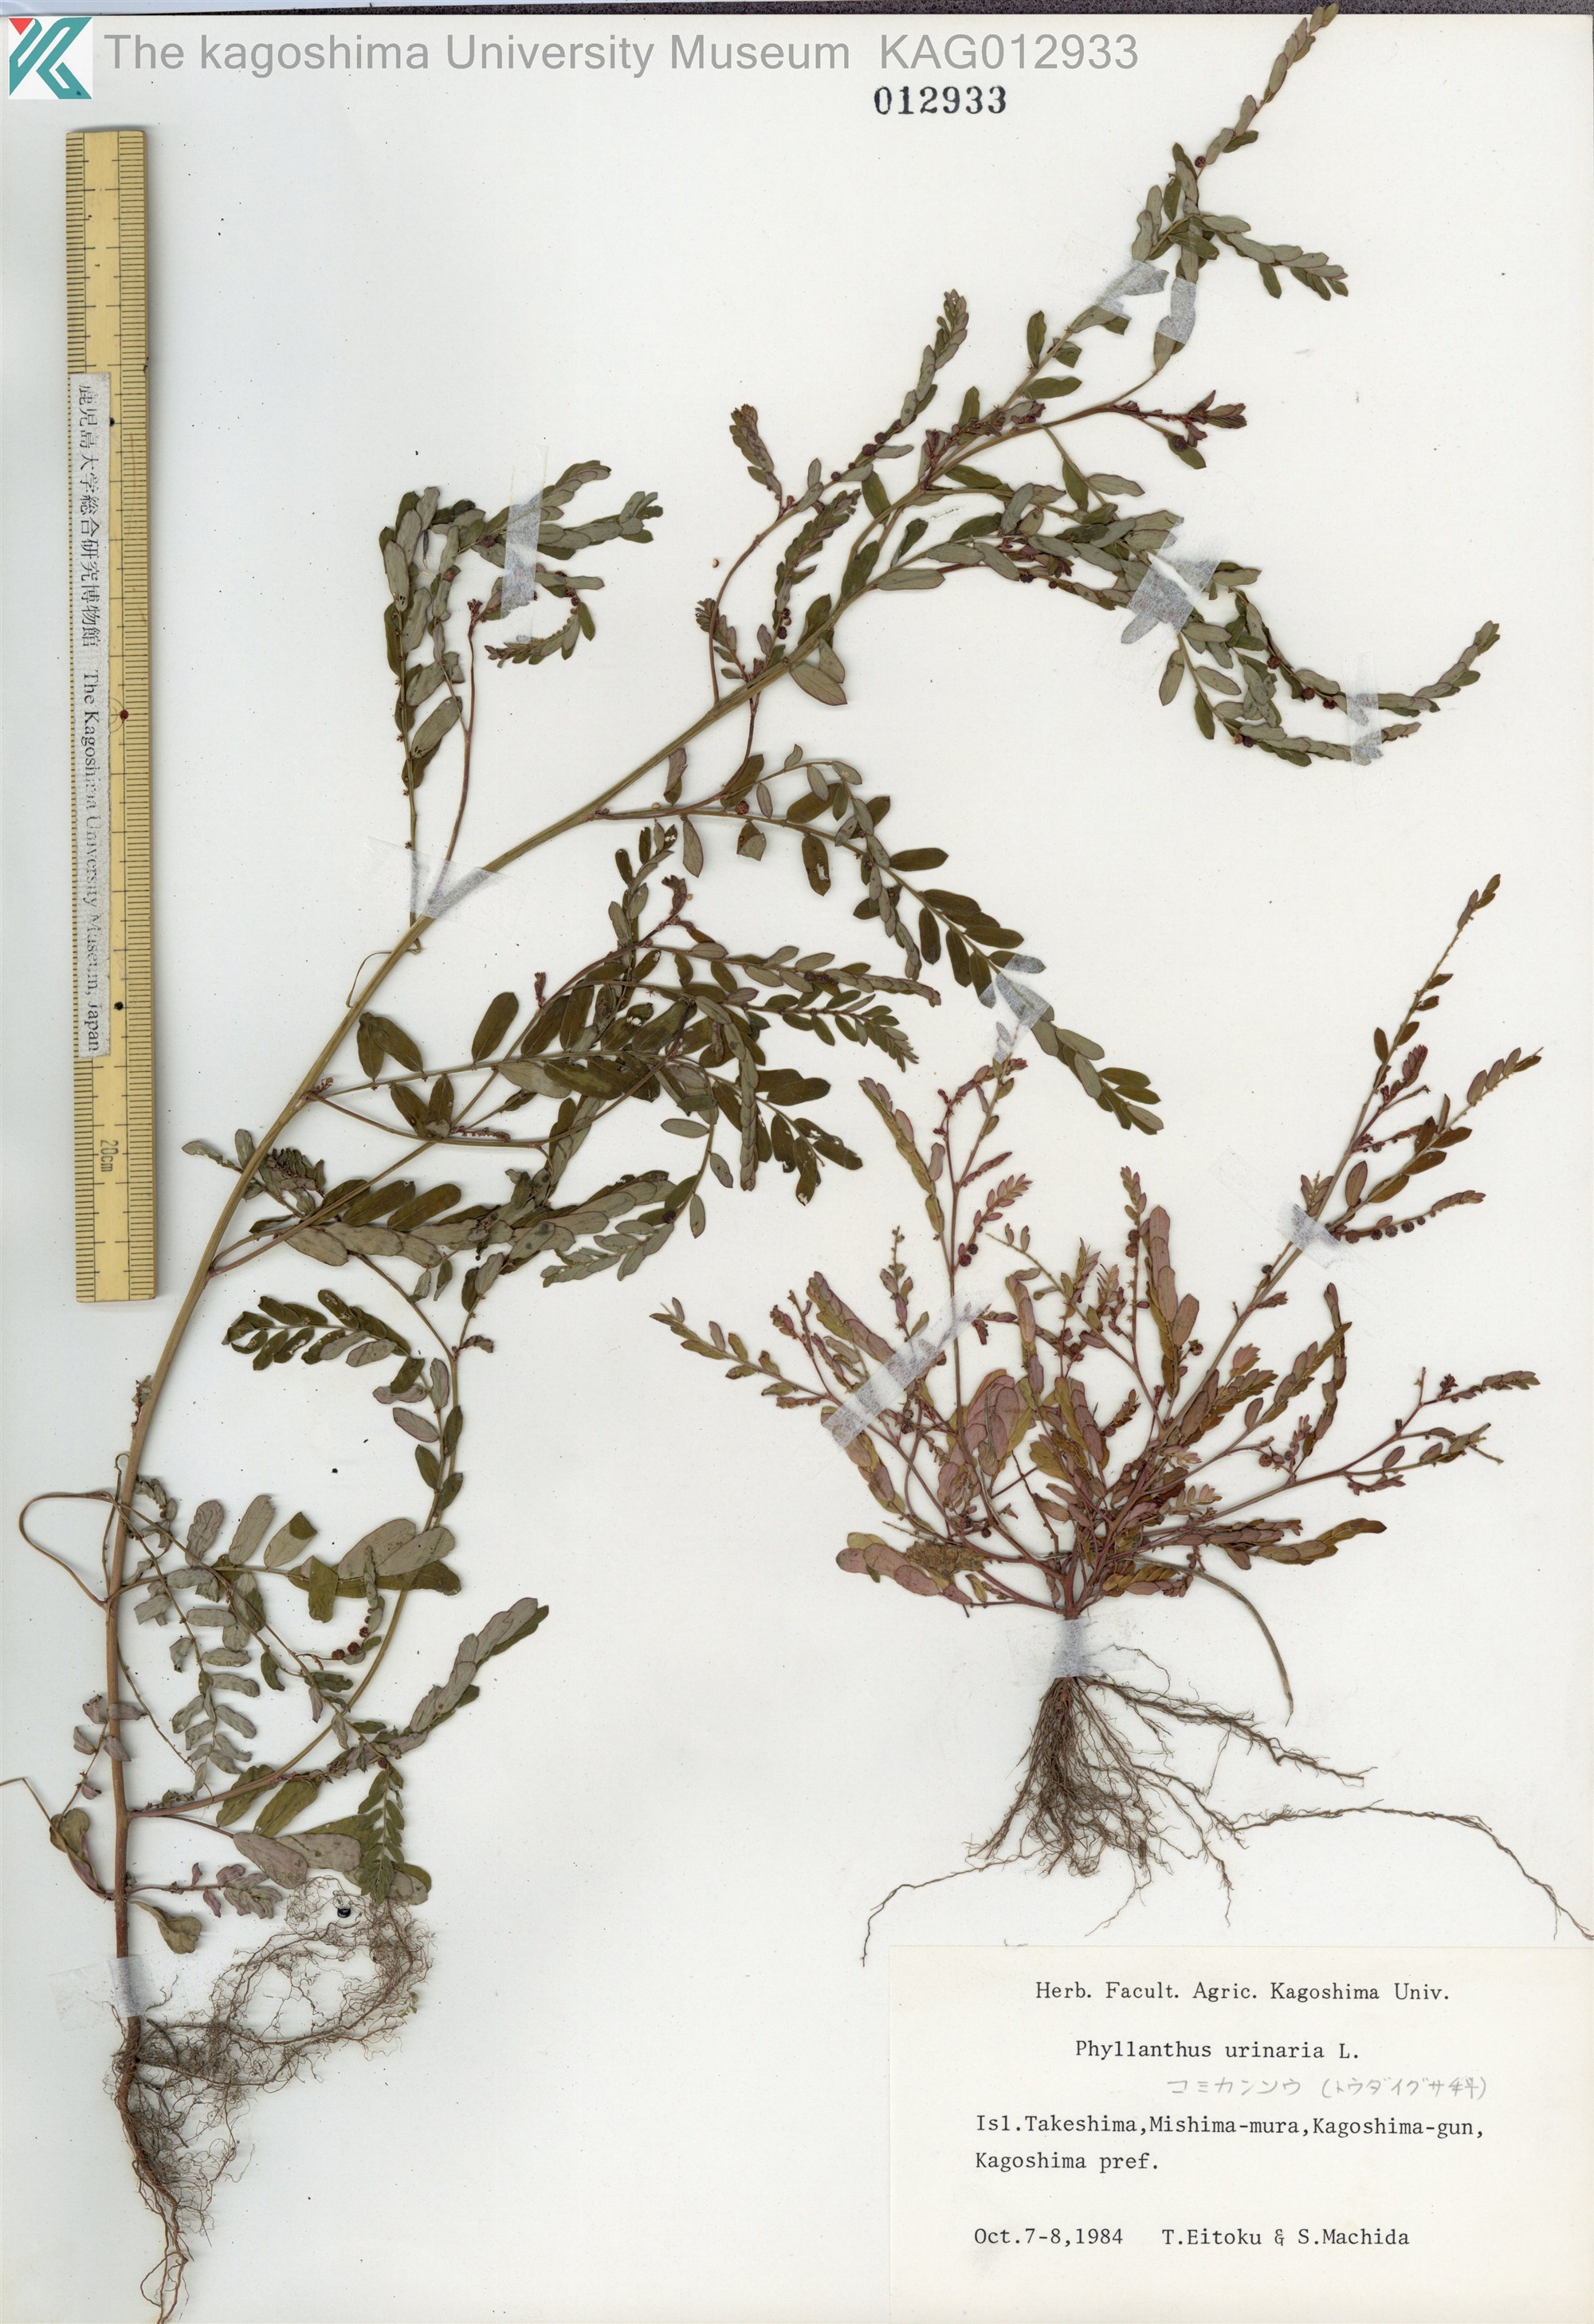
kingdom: Plantae
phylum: Tracheophyta
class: Magnoliopsida
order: Malpighiales
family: Phyllanthaceae
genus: Phyllanthus
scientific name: Phyllanthus urinaria
